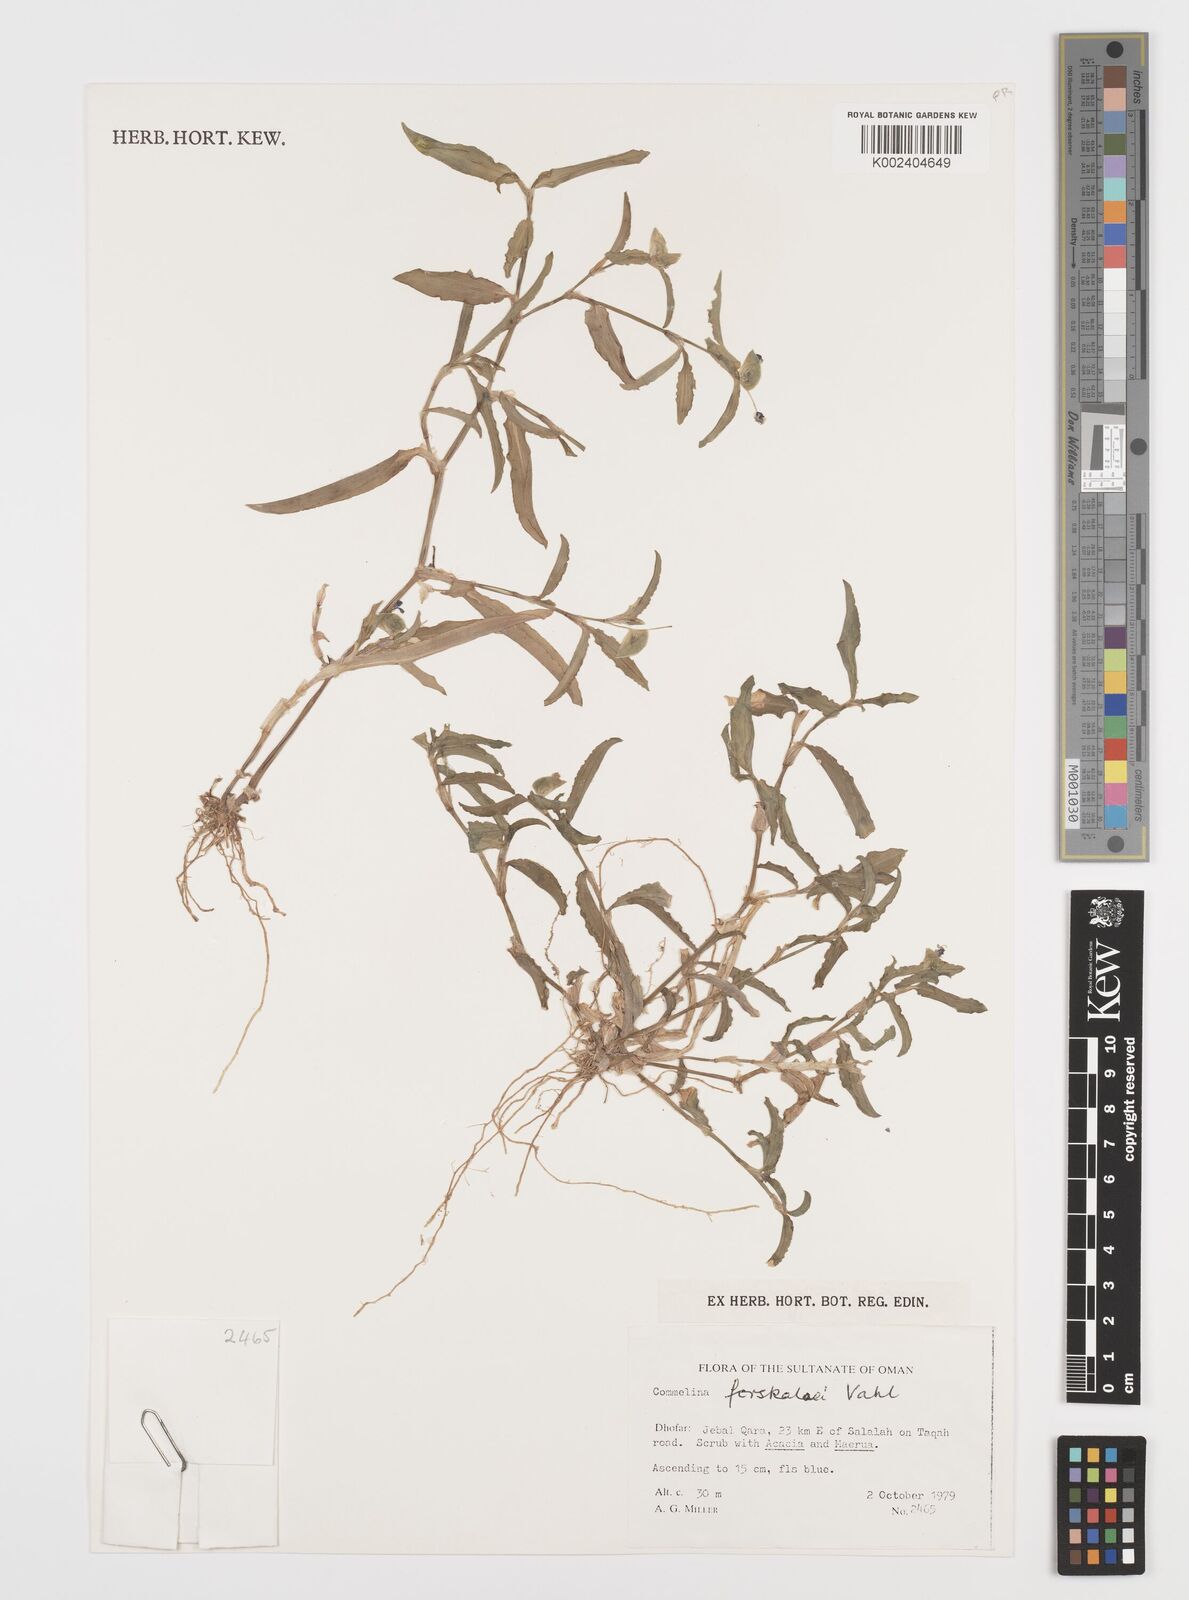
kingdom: Plantae
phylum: Tracheophyta
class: Liliopsida
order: Commelinales
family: Commelinaceae
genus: Commelina
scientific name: Commelina forskaolii
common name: Rat's ear
